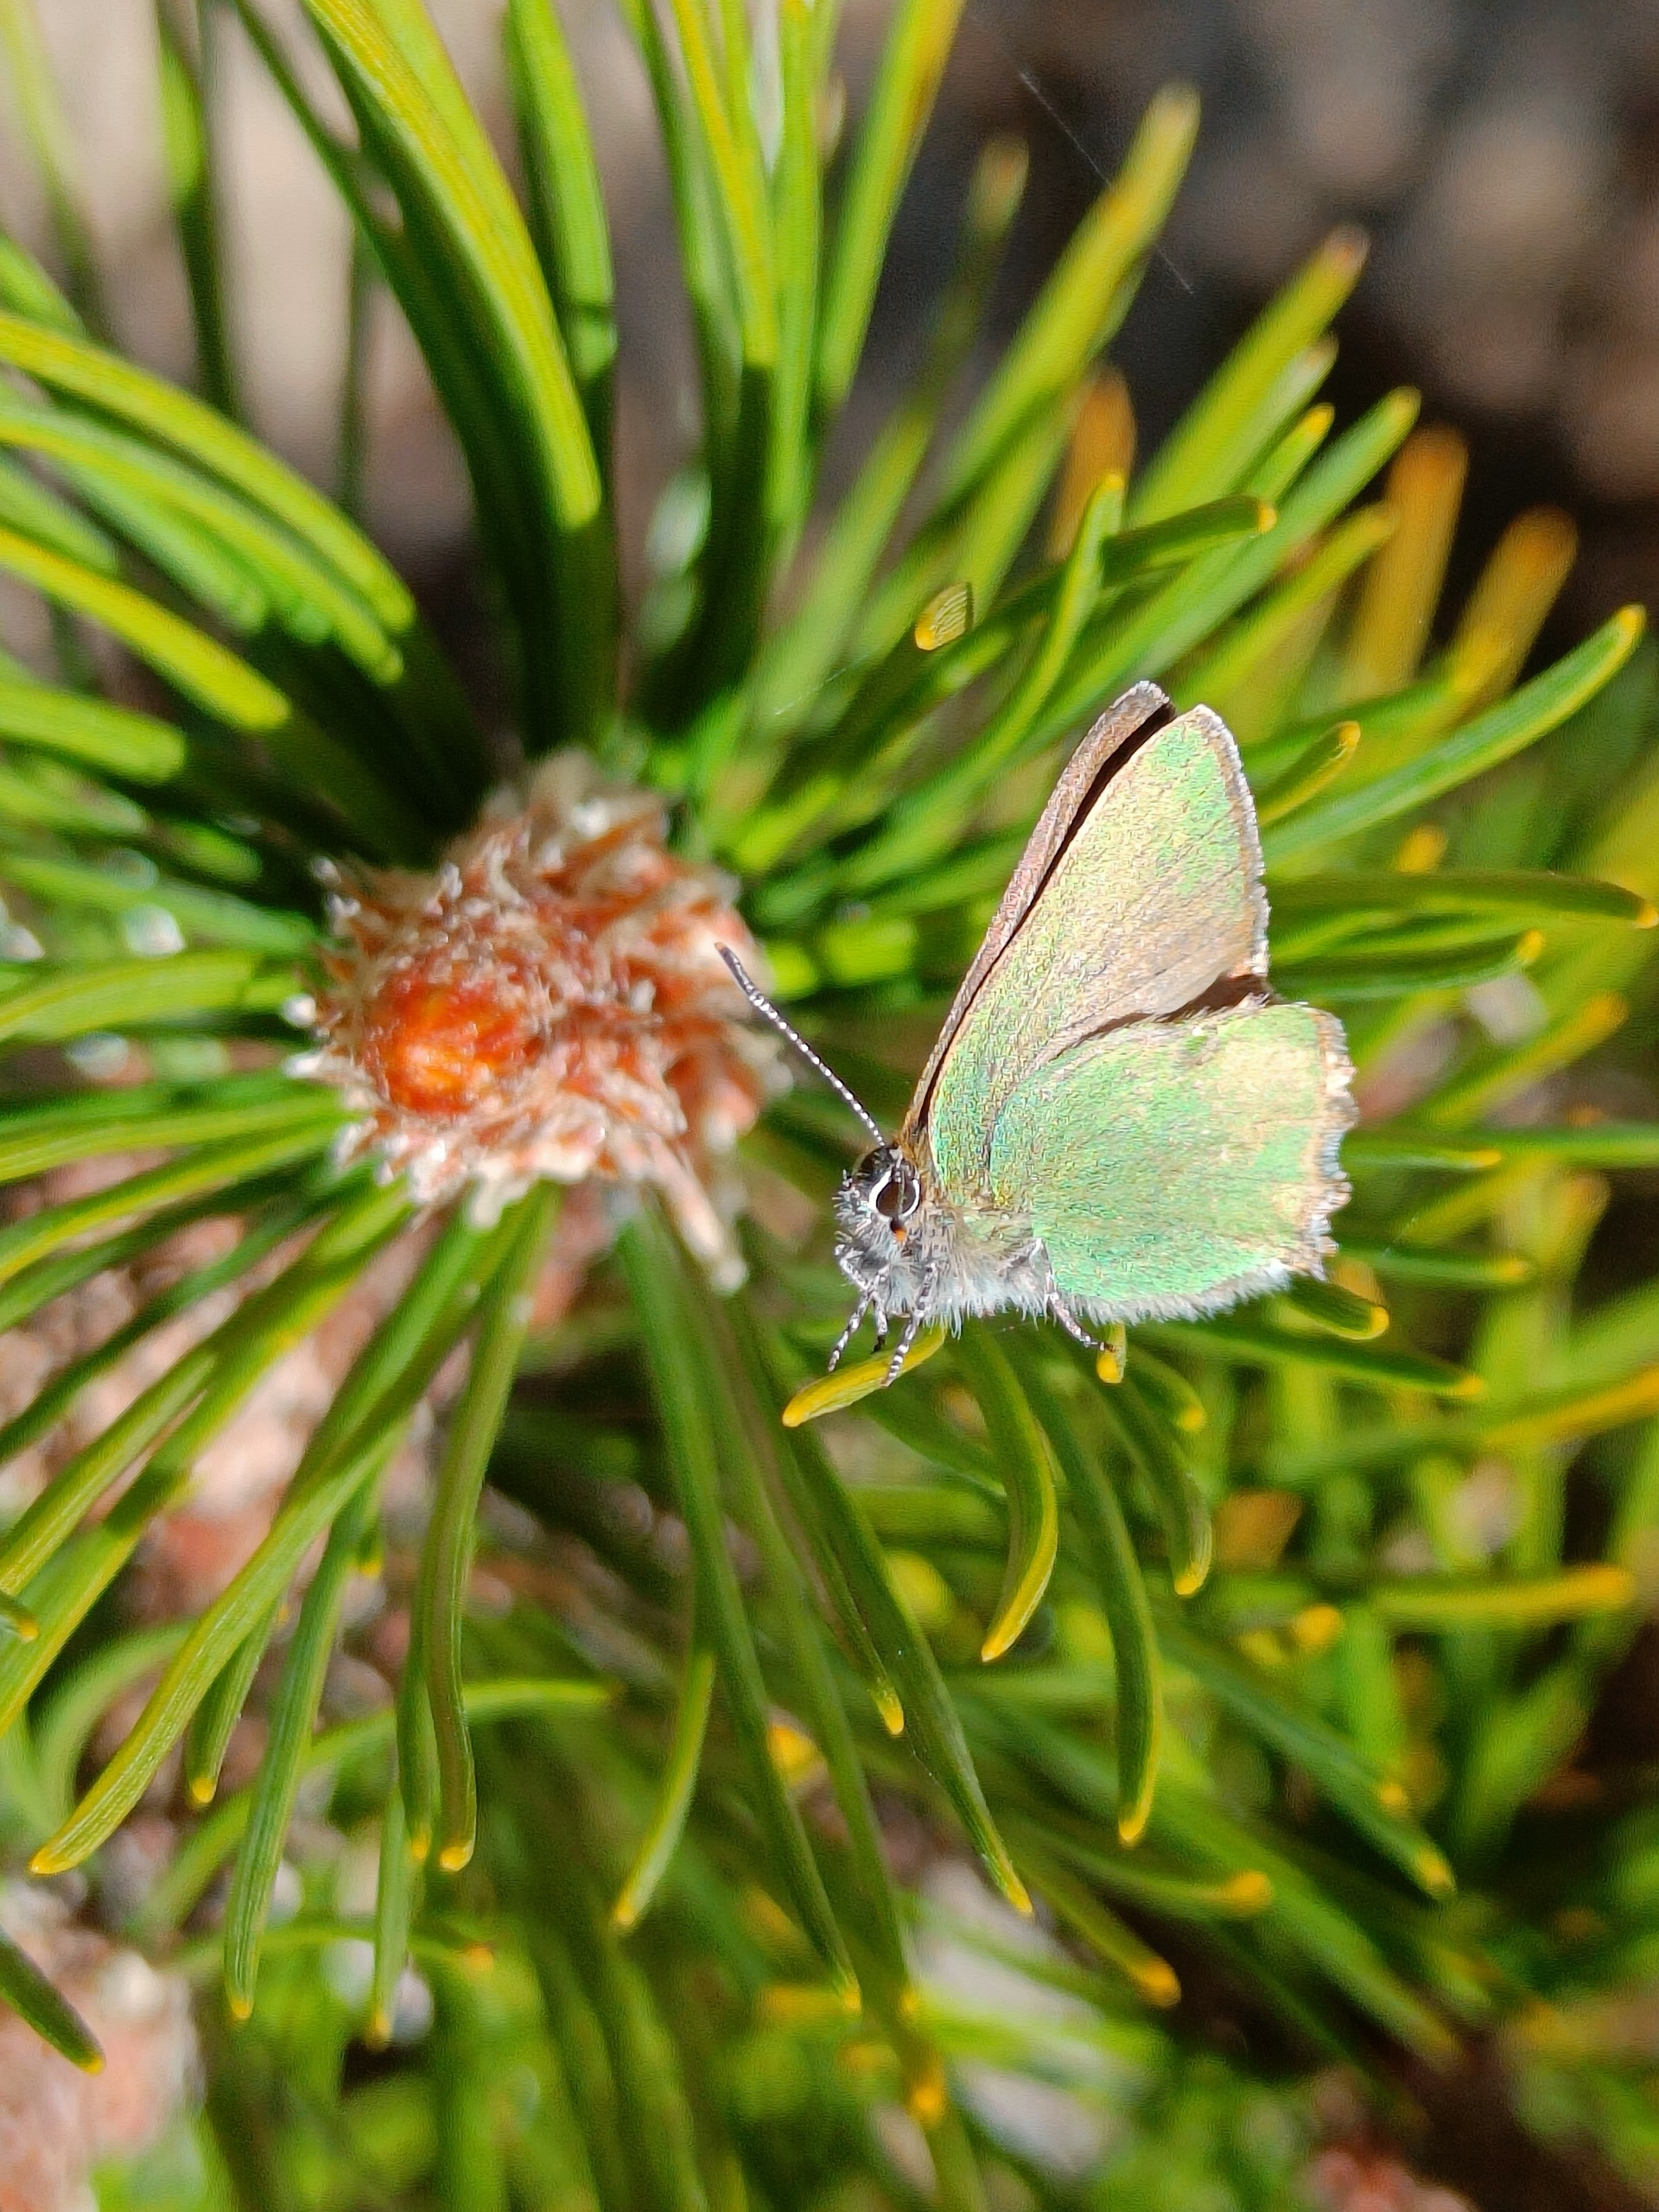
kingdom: Animalia
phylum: Arthropoda
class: Insecta
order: Lepidoptera
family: Lycaenidae
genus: Callophrys
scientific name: Callophrys rubi
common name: Grøn busksommerfugl
